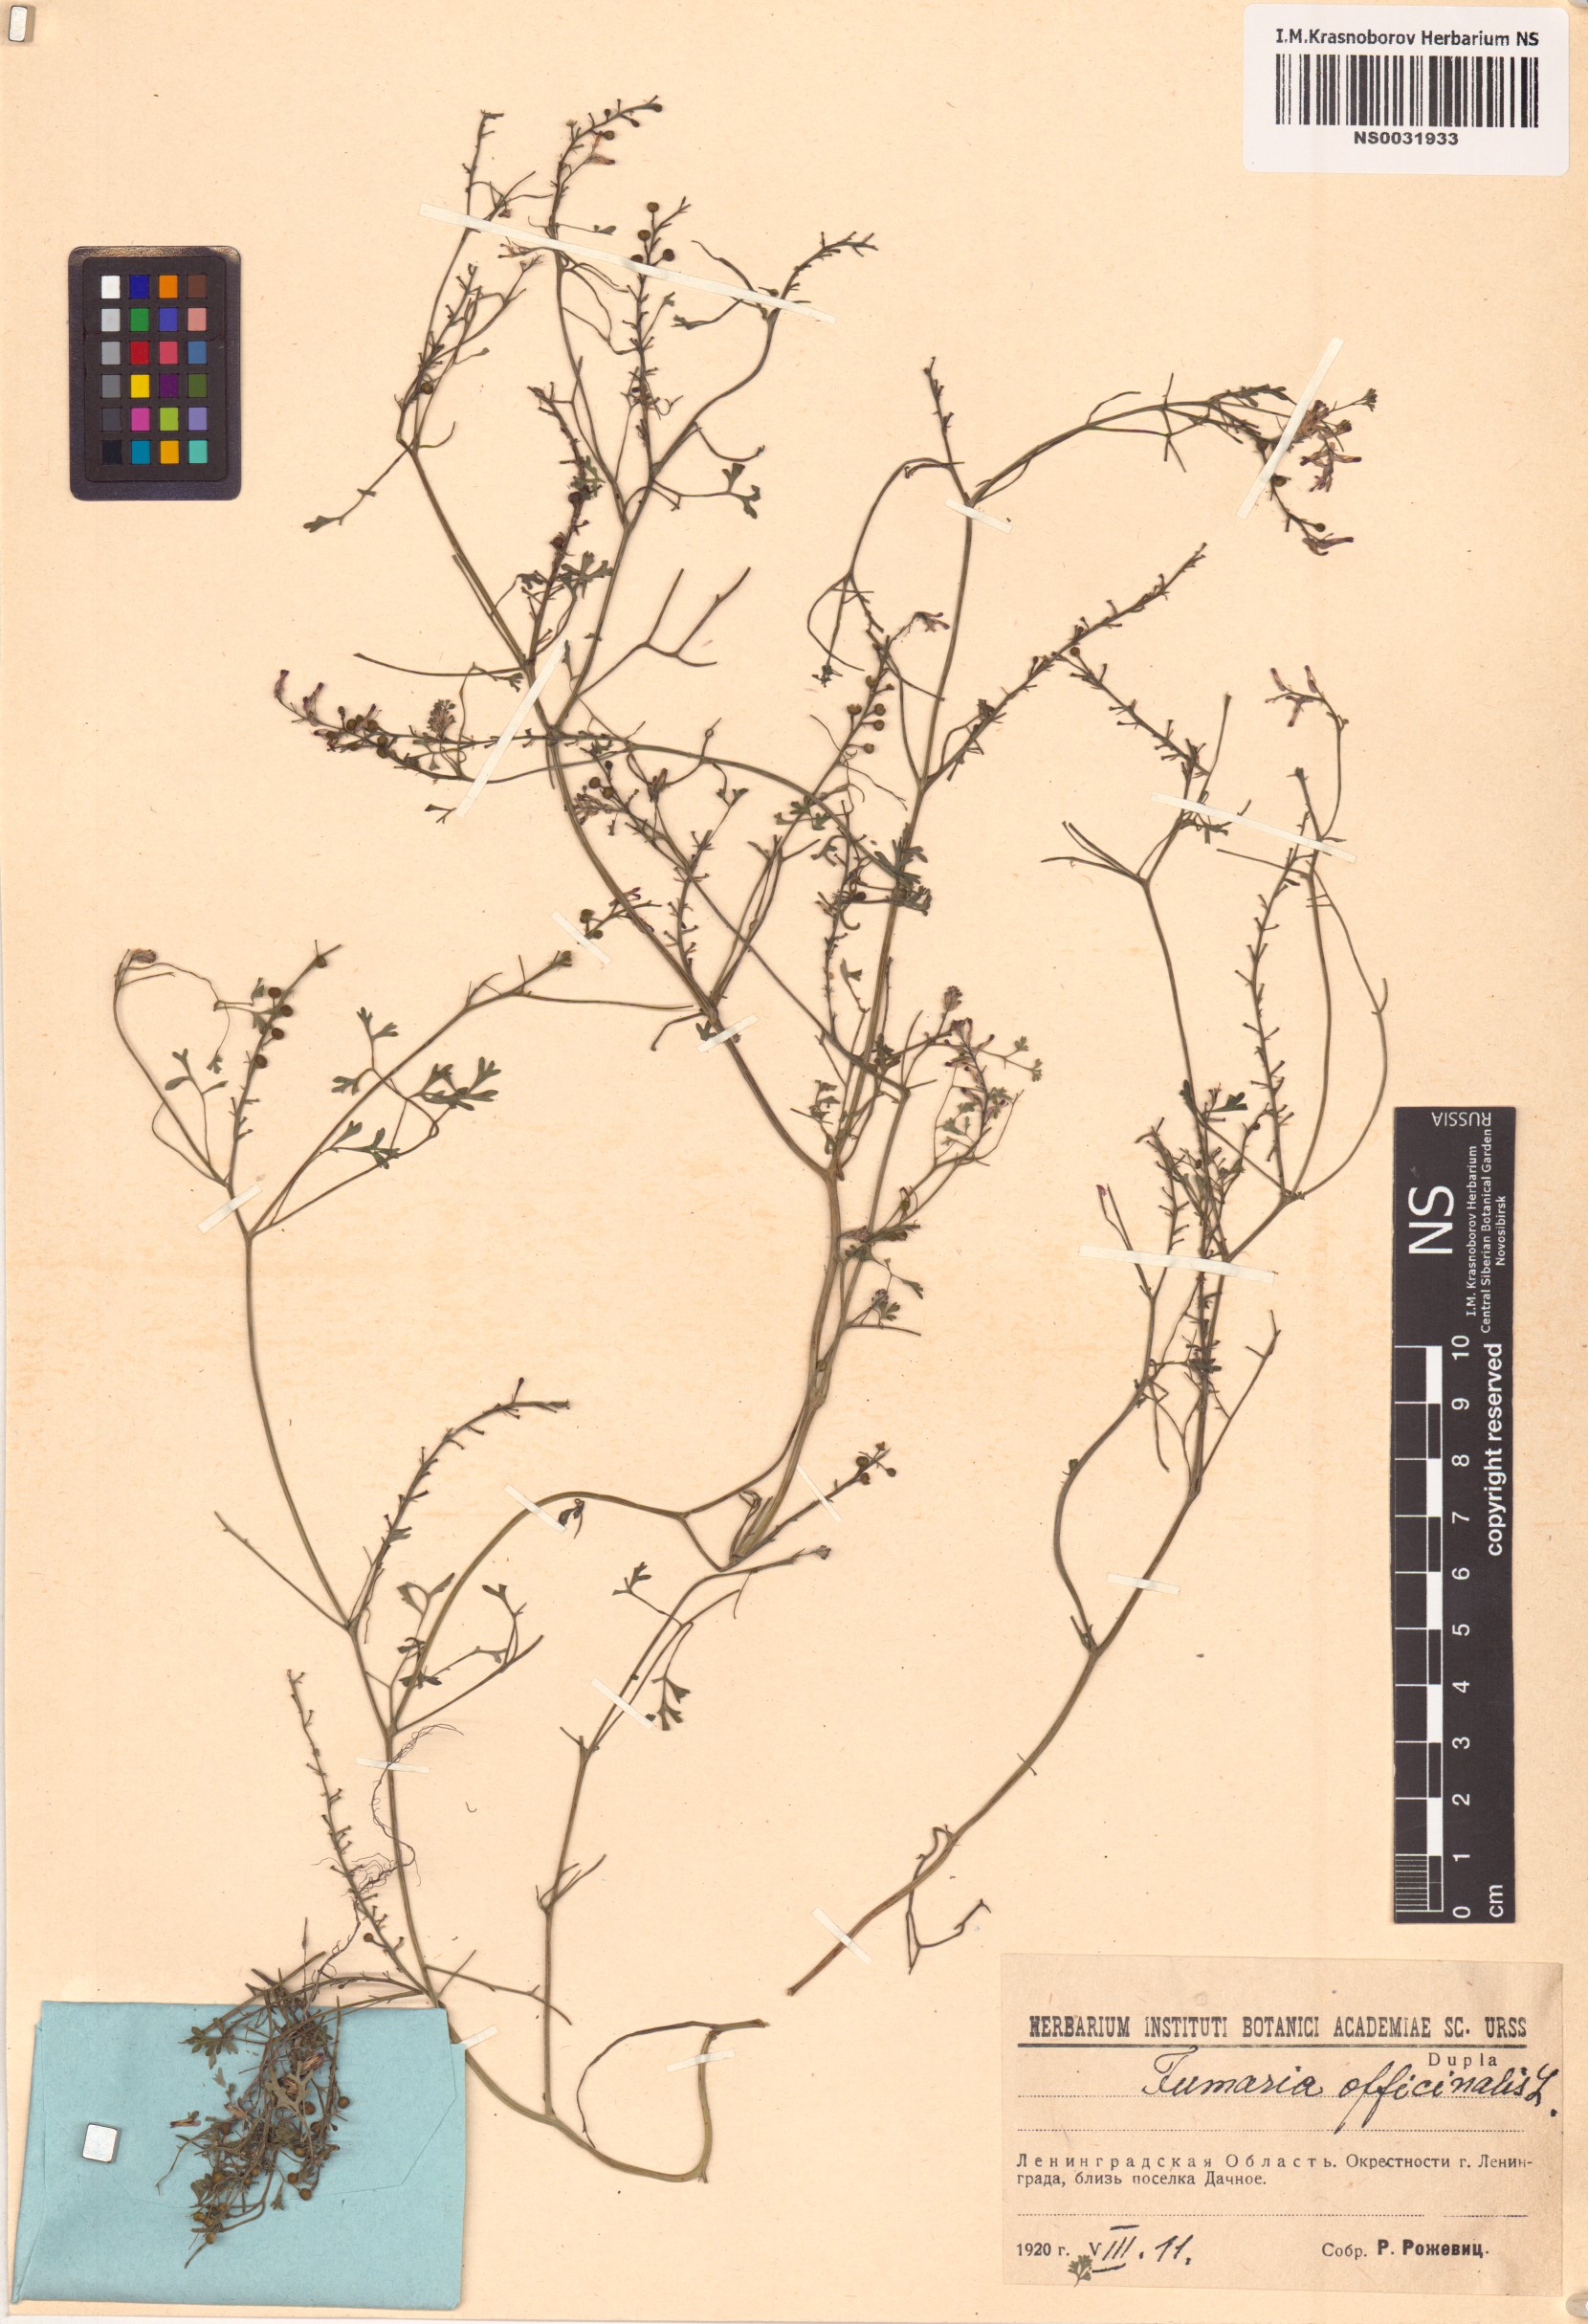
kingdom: Plantae
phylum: Tracheophyta
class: Magnoliopsida
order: Ranunculales
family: Papaveraceae
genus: Fumaria
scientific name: Fumaria officinalis
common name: Common fumitory
